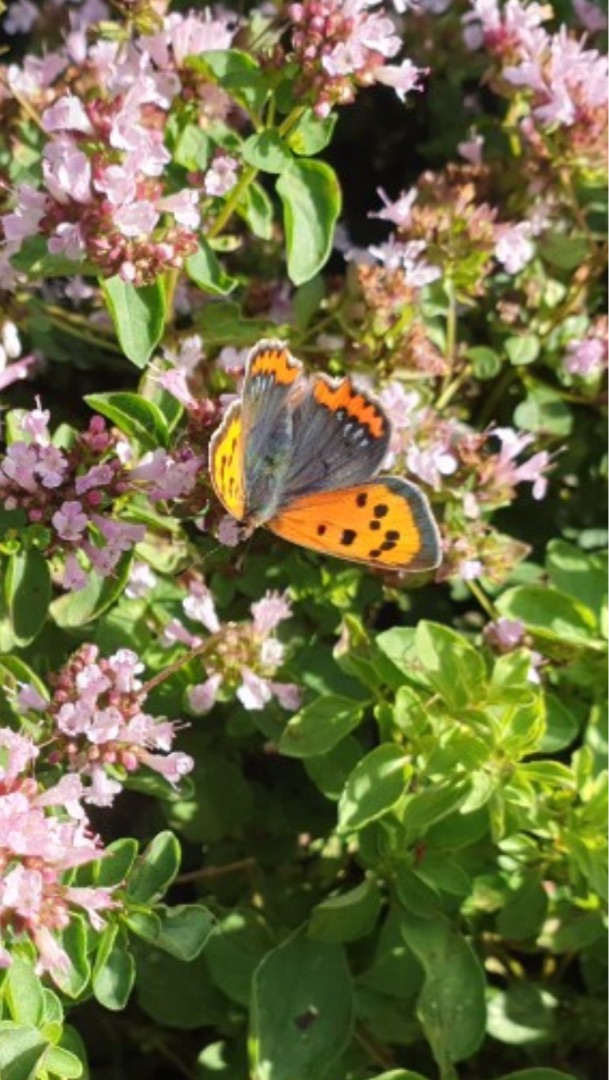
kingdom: Animalia
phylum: Arthropoda
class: Insecta
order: Lepidoptera
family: Lycaenidae
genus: Lycaena
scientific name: Lycaena phlaeas
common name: Lille ildfugl
